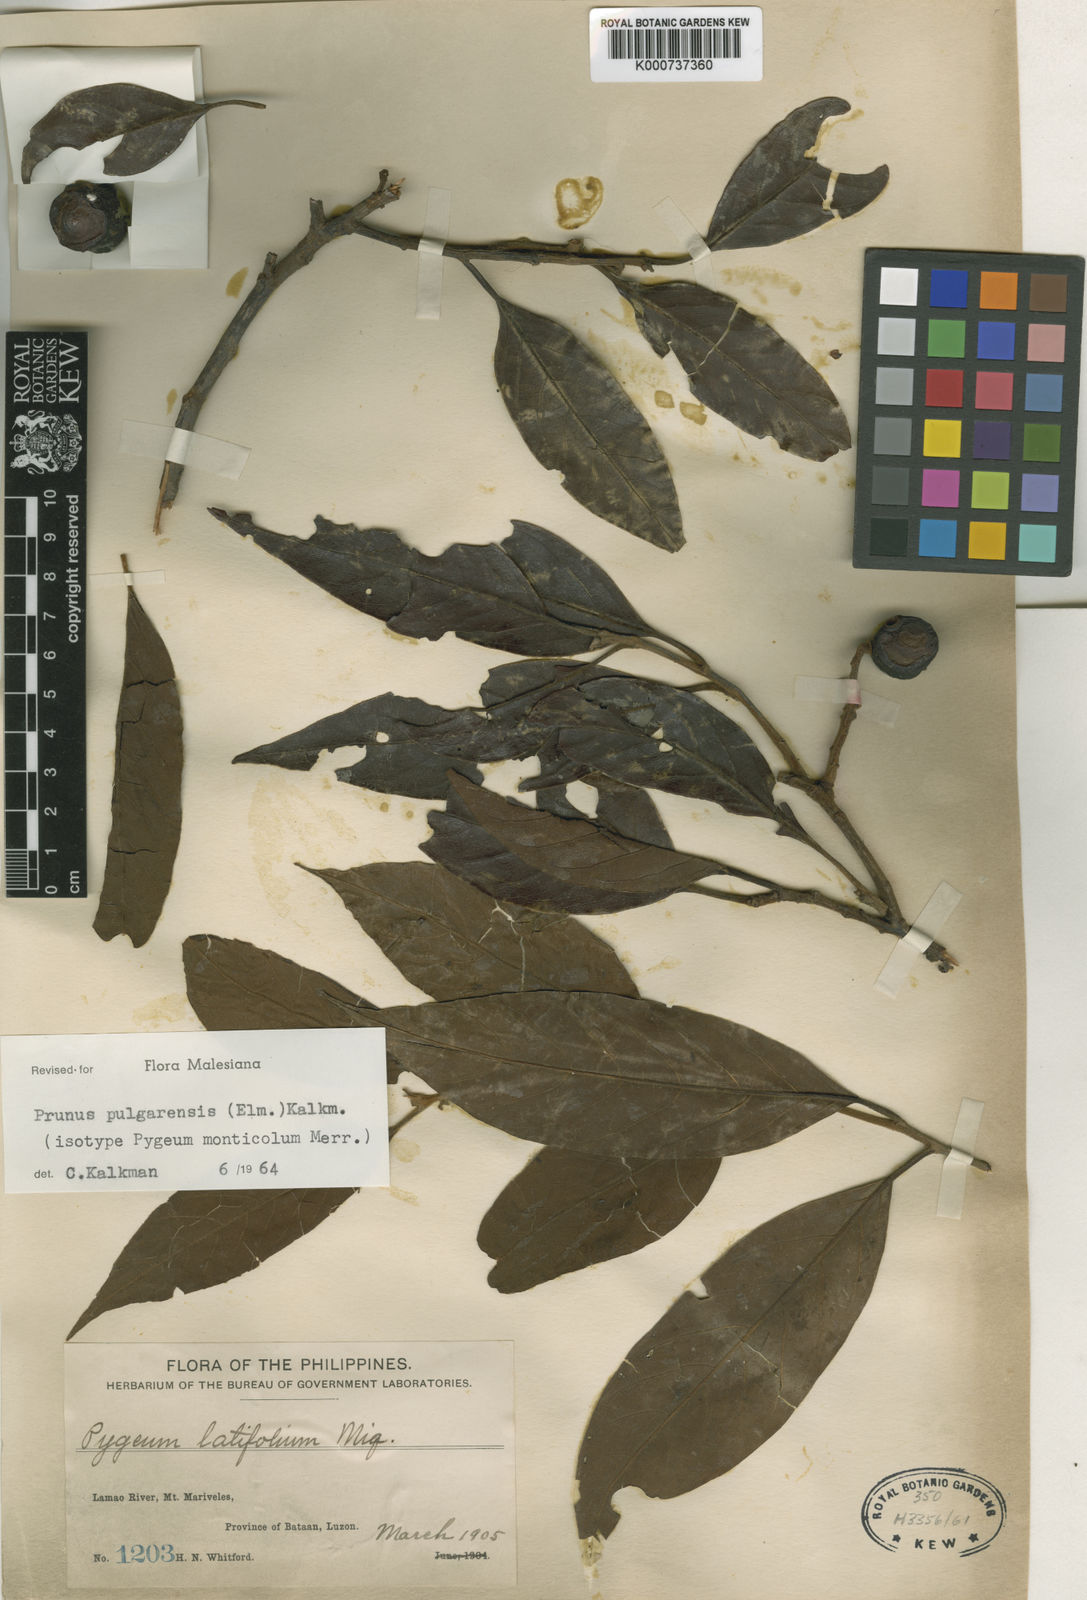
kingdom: Plantae
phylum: Tracheophyta
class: Magnoliopsida
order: Rosales
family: Rosaceae
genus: Prunus
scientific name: Prunus pulgarensis
